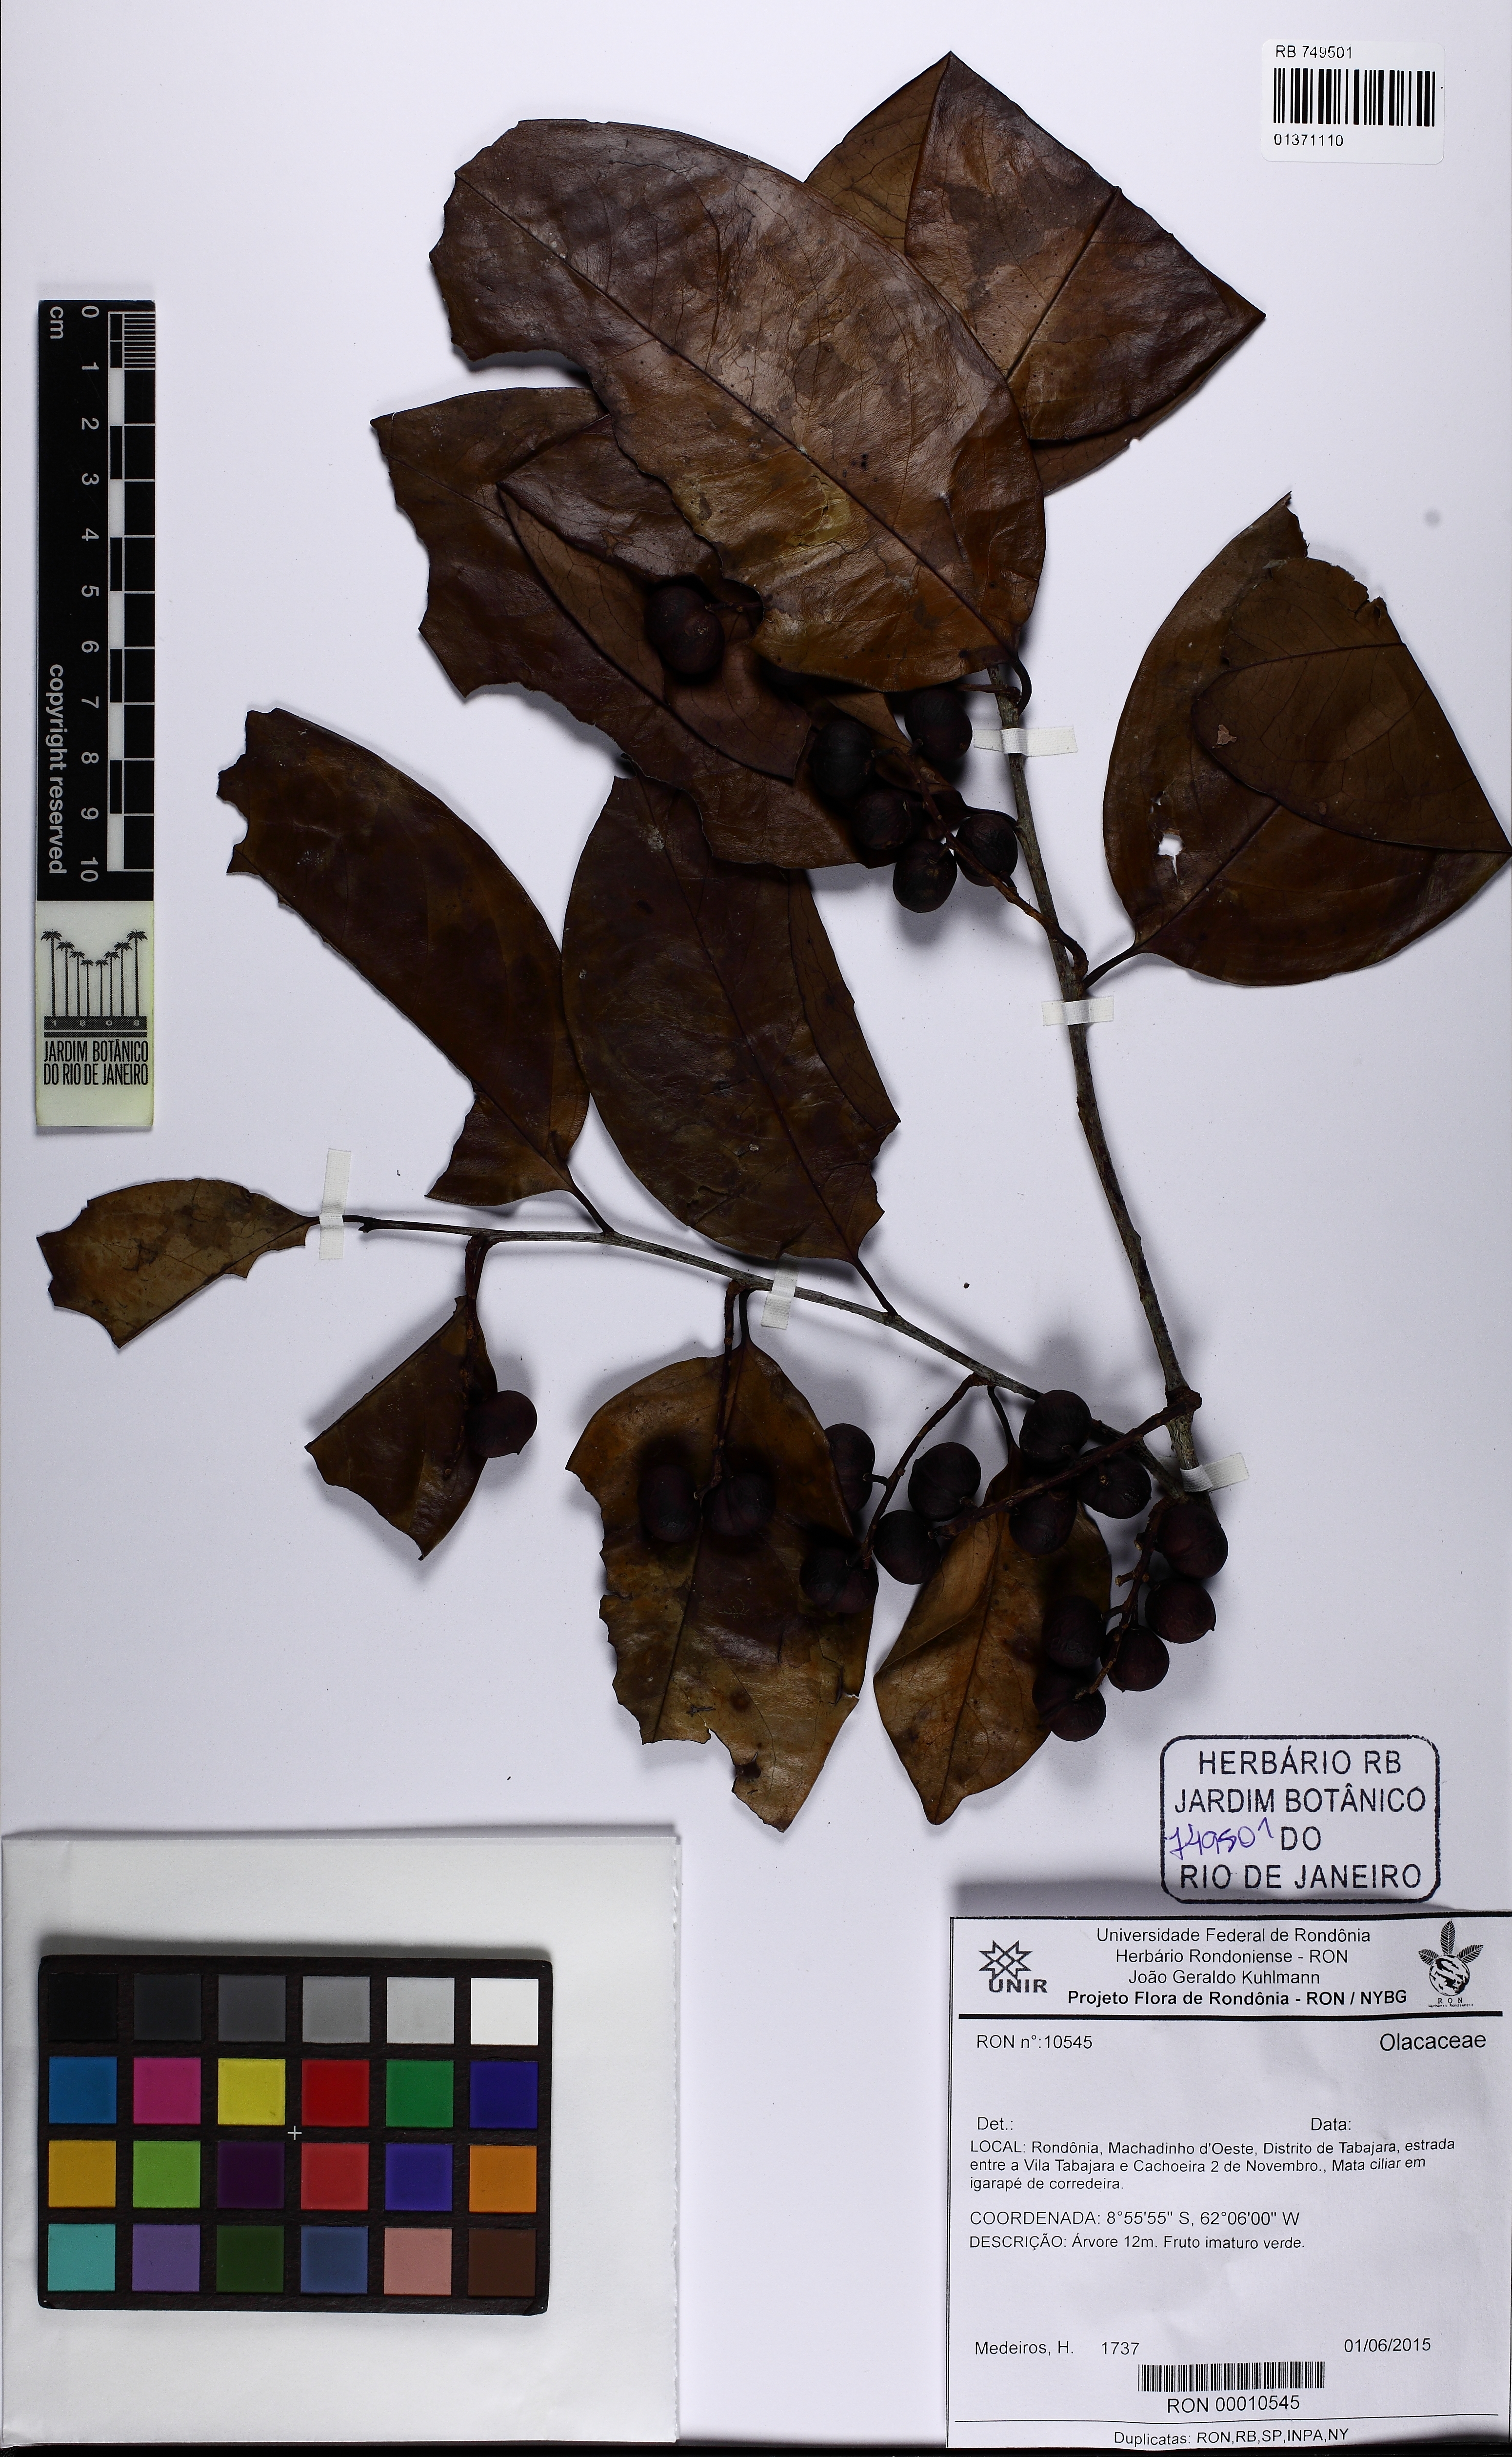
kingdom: Plantae
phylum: Tracheophyta
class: Magnoliopsida
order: Santalales
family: Olacaceae
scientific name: Olacaceae
